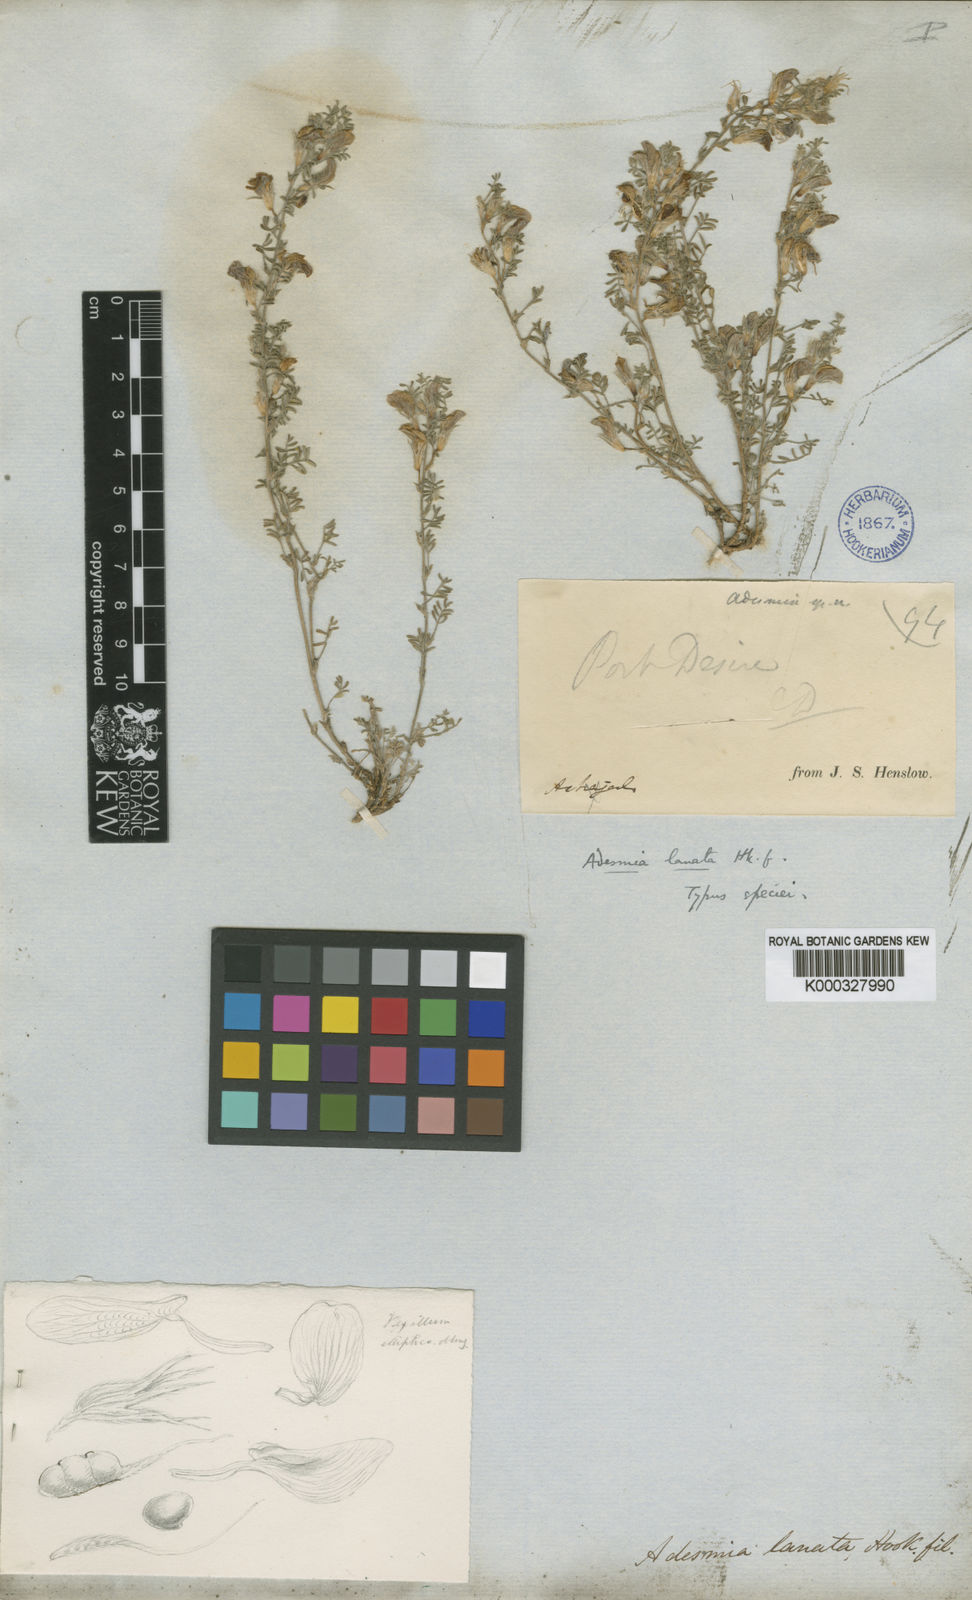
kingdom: Plantae
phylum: Tracheophyta
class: Magnoliopsida
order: Fabales
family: Fabaceae
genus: Adesmia
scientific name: Adesmia lanata
